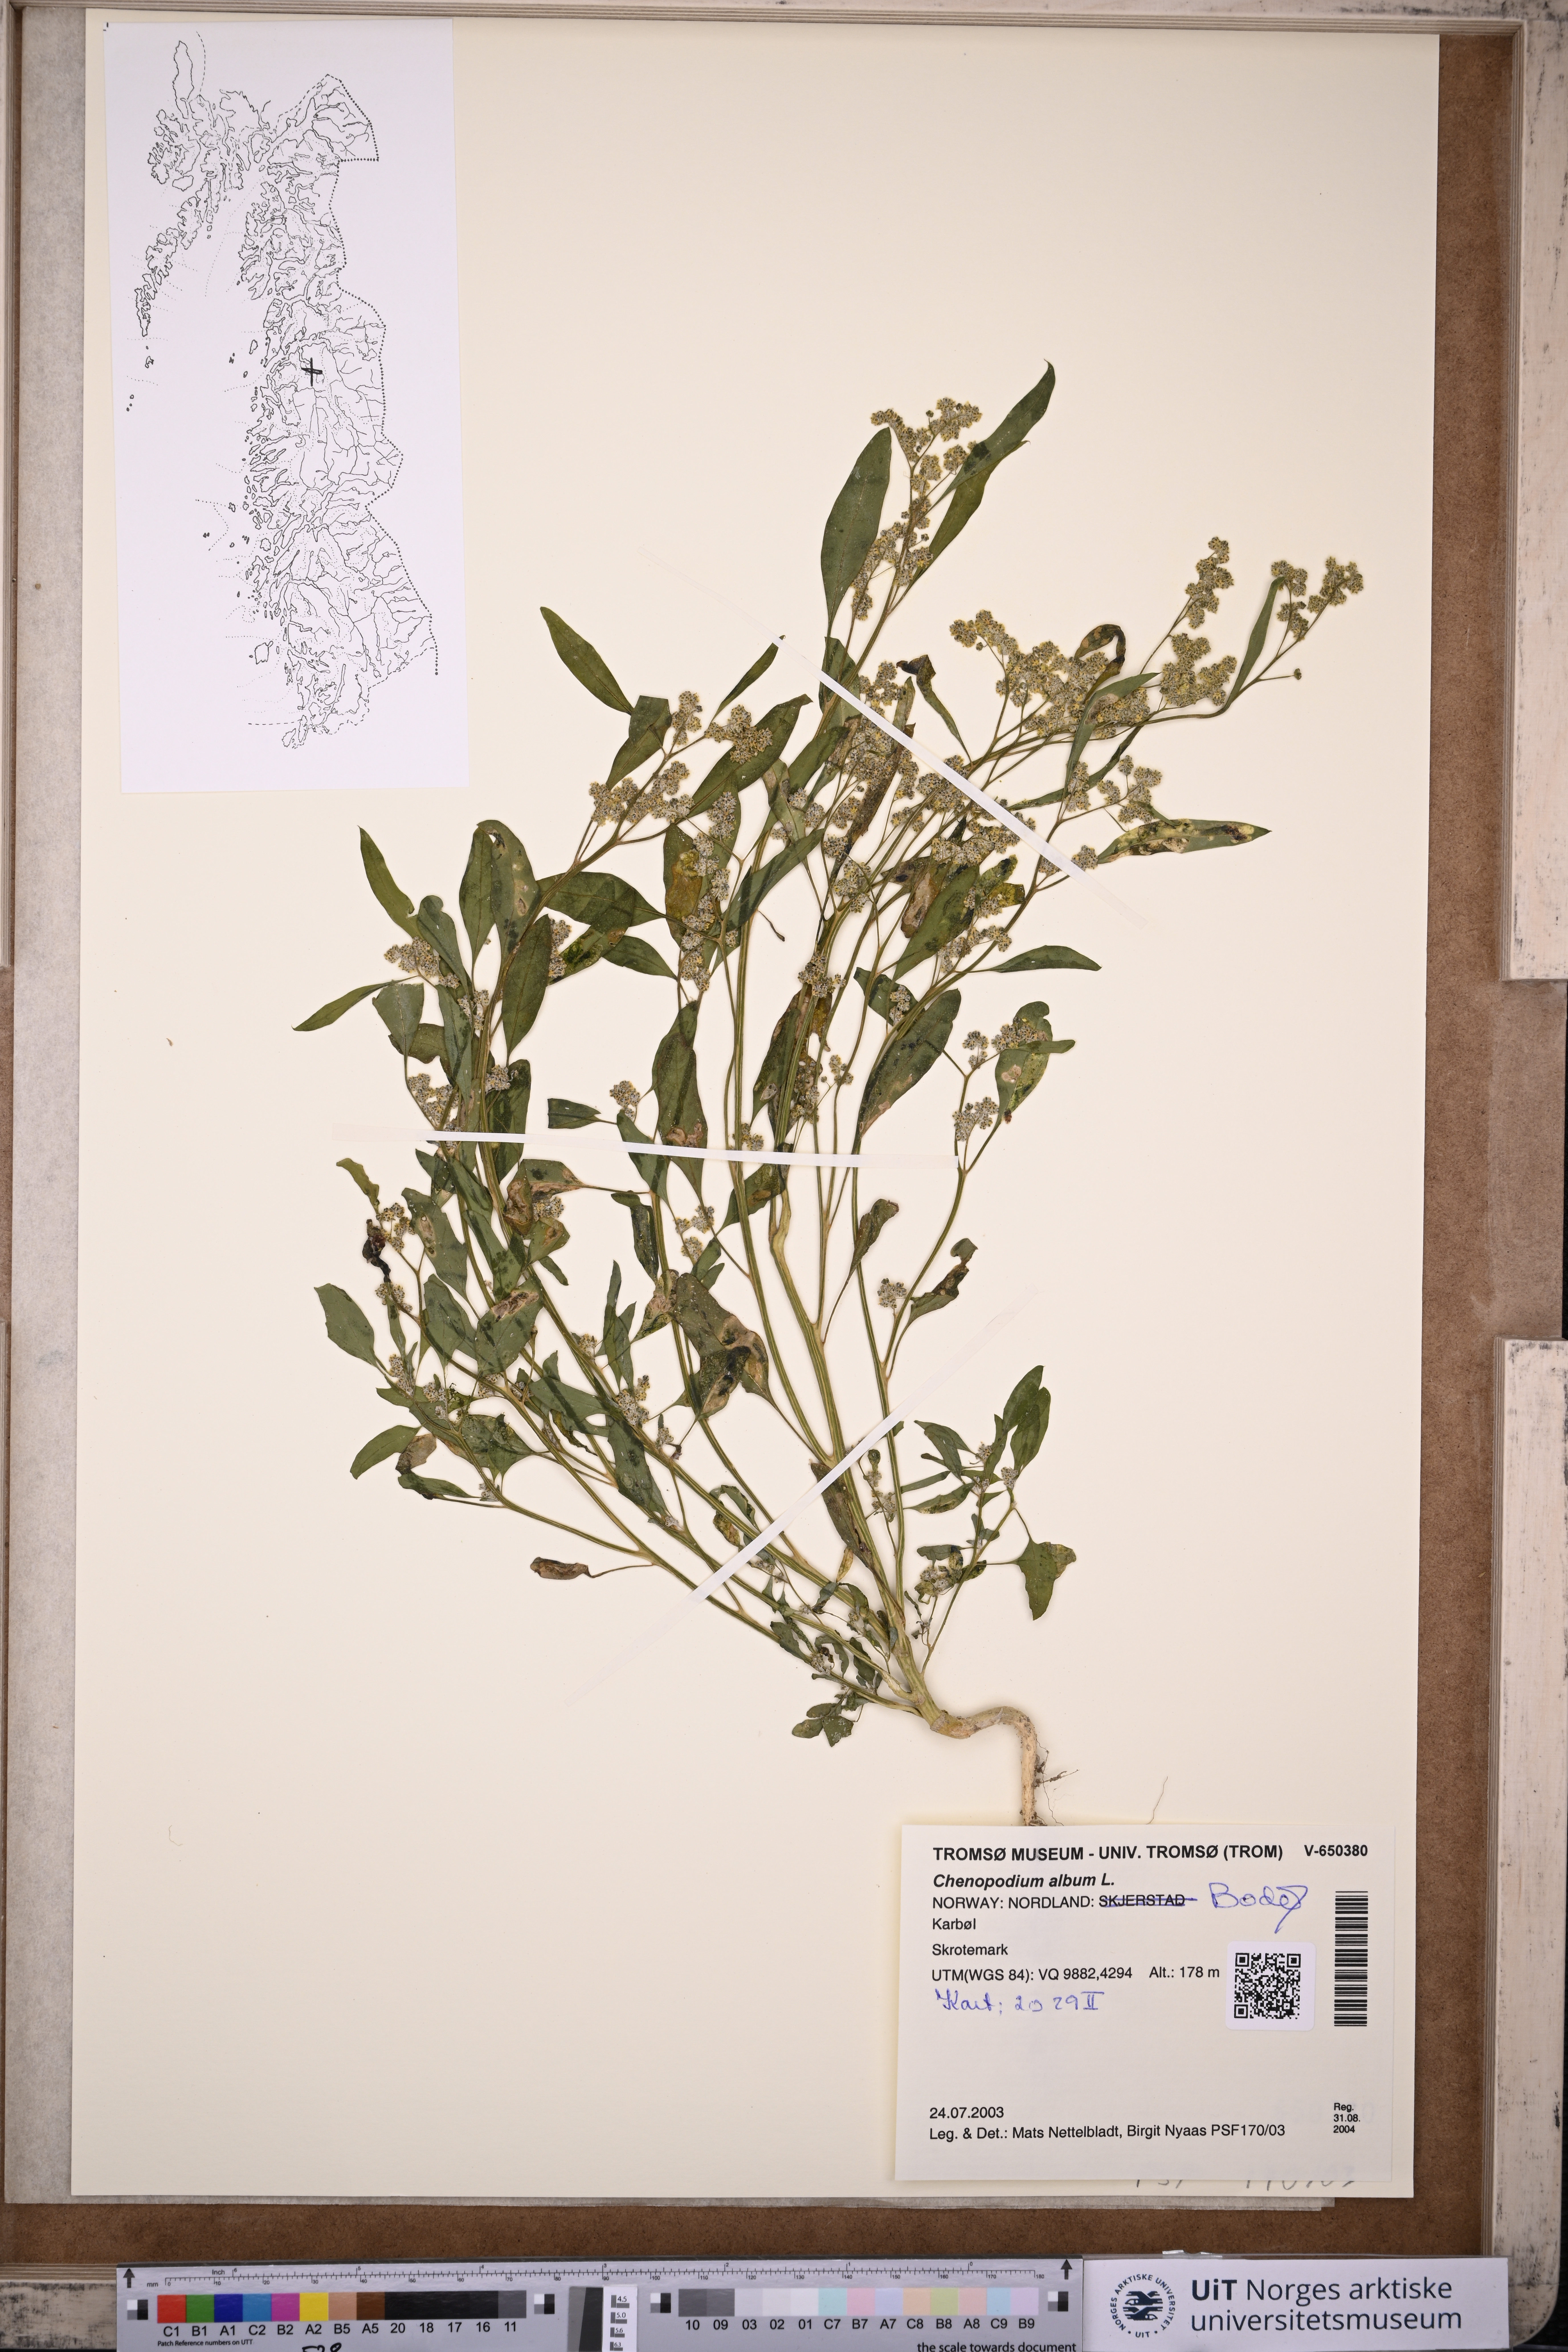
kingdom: Plantae
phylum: Tracheophyta
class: Magnoliopsida
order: Caryophyllales
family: Amaranthaceae
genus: Chenopodium
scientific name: Chenopodium album
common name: Fat-hen
